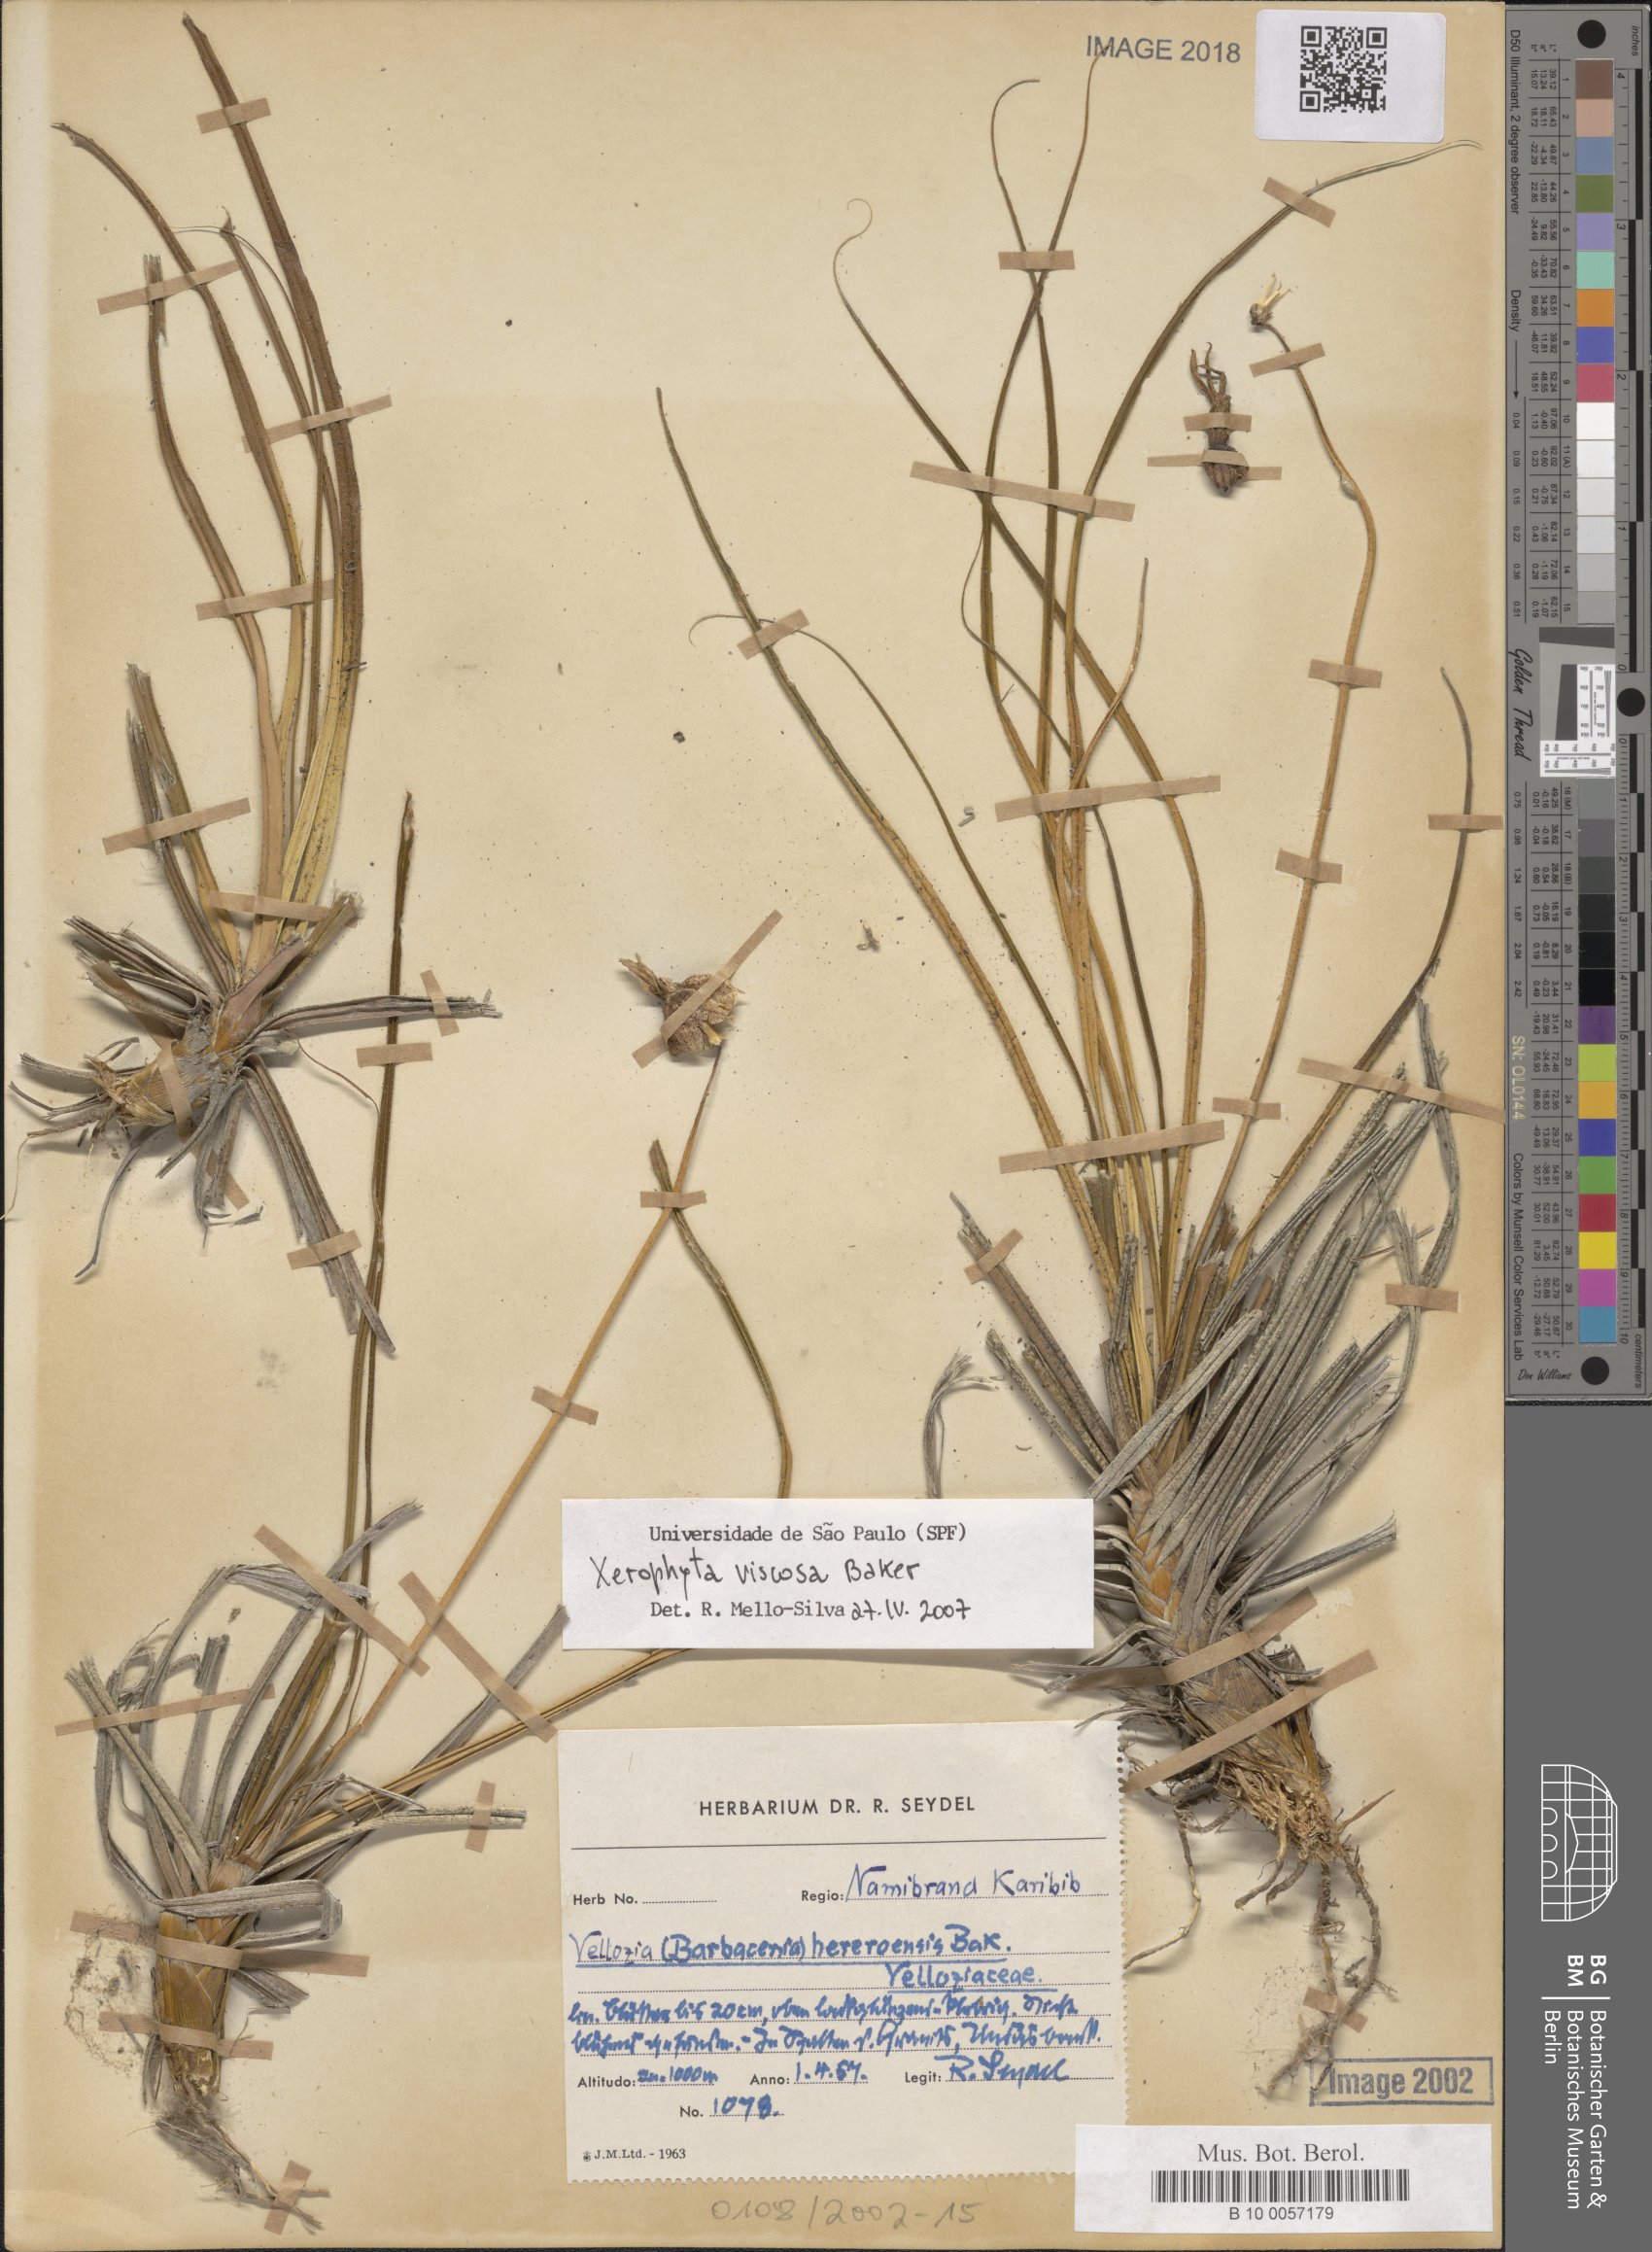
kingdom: Plantae
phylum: Tracheophyta
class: Liliopsida
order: Pandanales
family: Velloziaceae
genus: Xerophyta
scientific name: Xerophyta hereroensis
